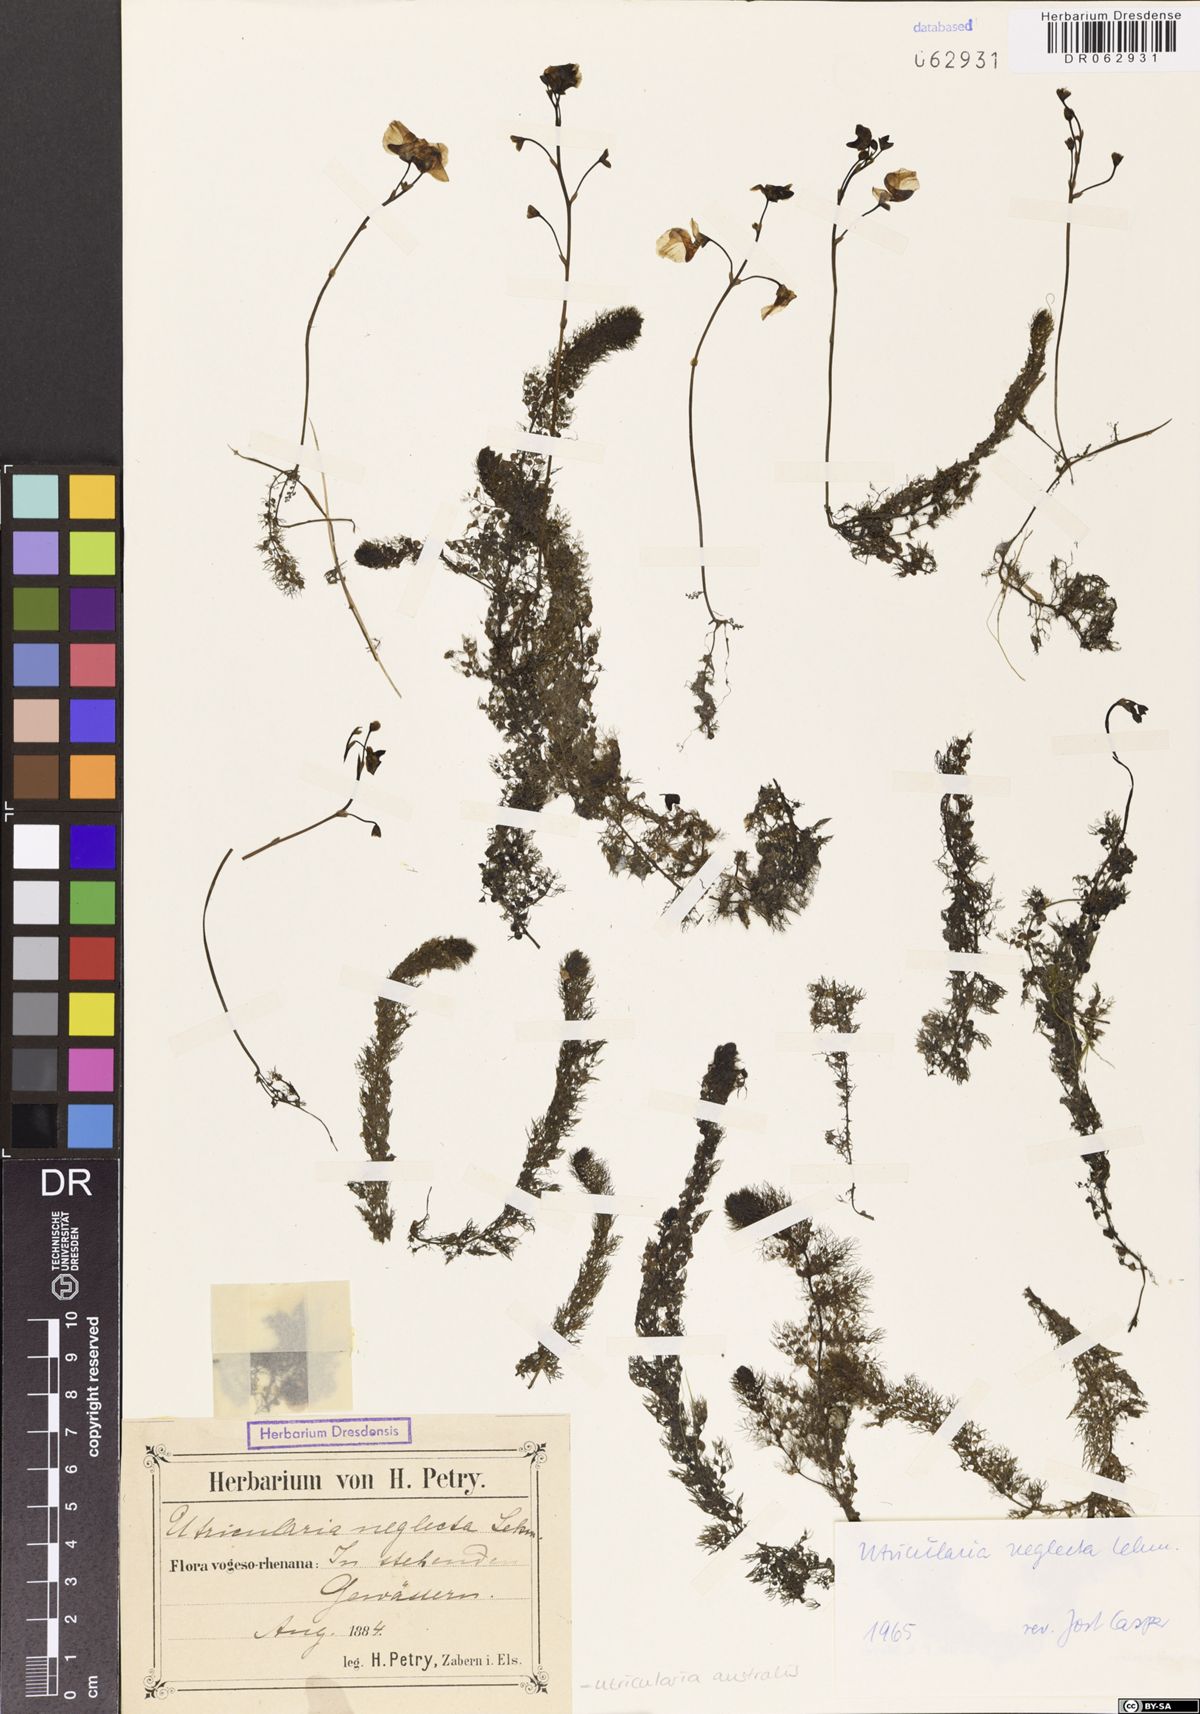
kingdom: Plantae
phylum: Tracheophyta
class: Magnoliopsida
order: Lamiales
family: Lentibulariaceae
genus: Utricularia
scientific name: Utricularia australis
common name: Bladderwort
